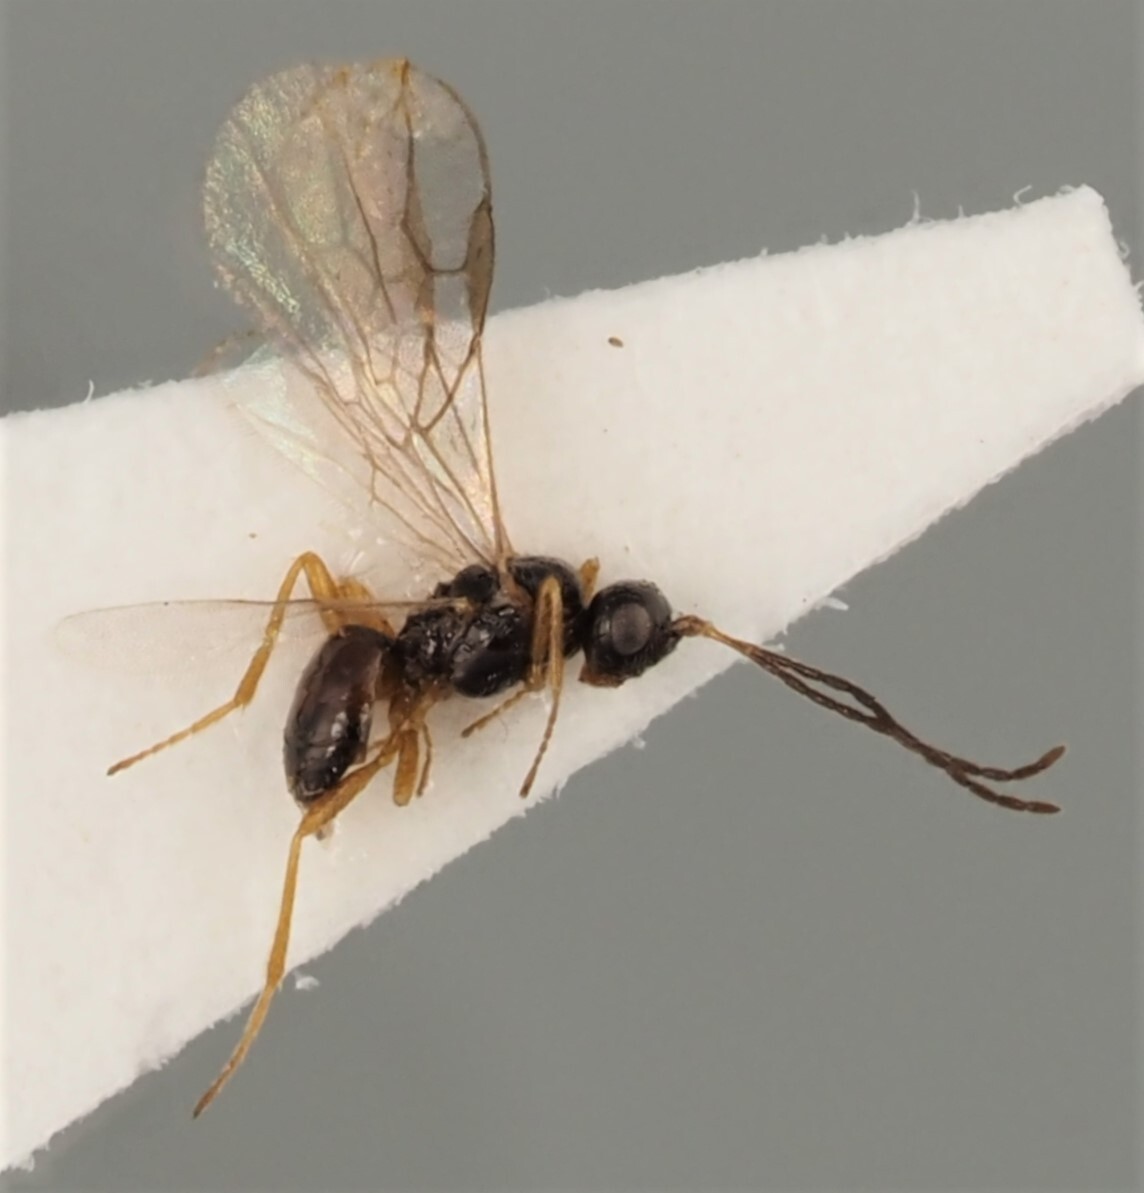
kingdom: Animalia
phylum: Arthropoda
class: Insecta
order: Hymenoptera
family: Braconidae
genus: Gnamptodon
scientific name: Gnamptodon pumilio
